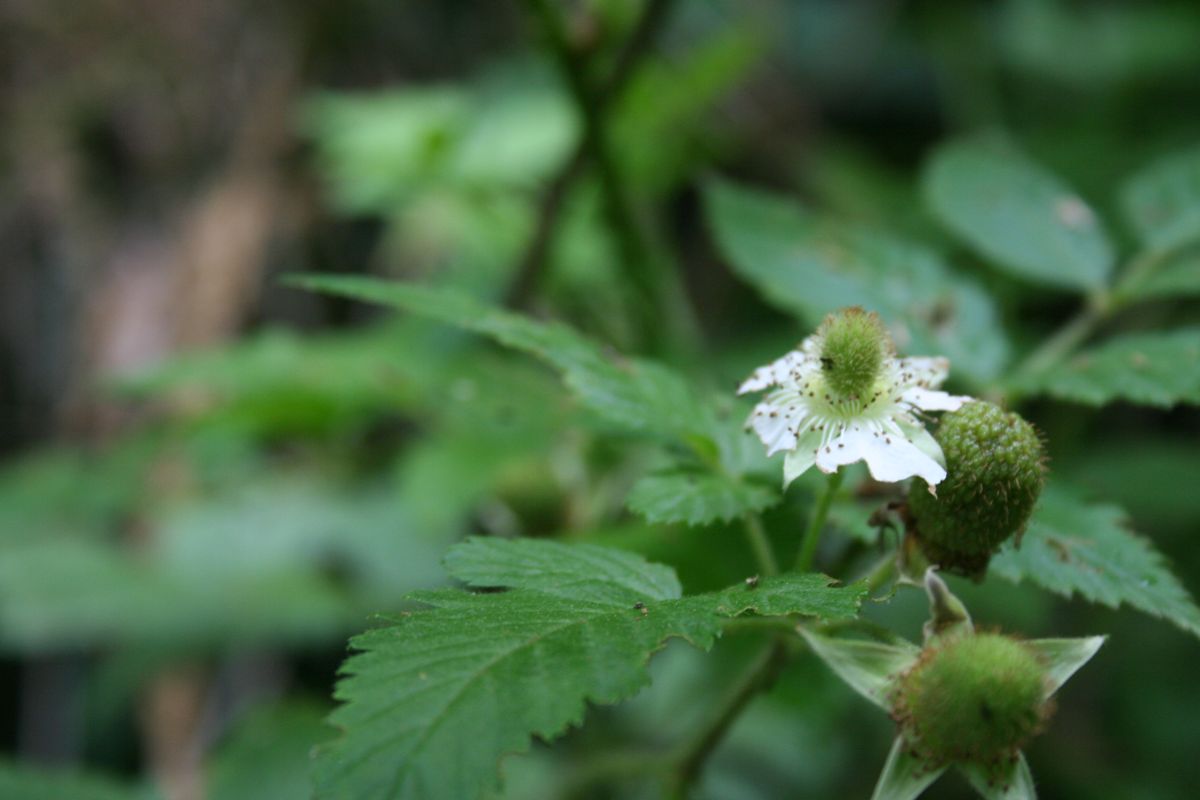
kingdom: Plantae
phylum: Tracheophyta
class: Magnoliopsida
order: Rosales
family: Rosaceae
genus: Rubus
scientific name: Rubus rosifolius
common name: Roseleaf raspberry
